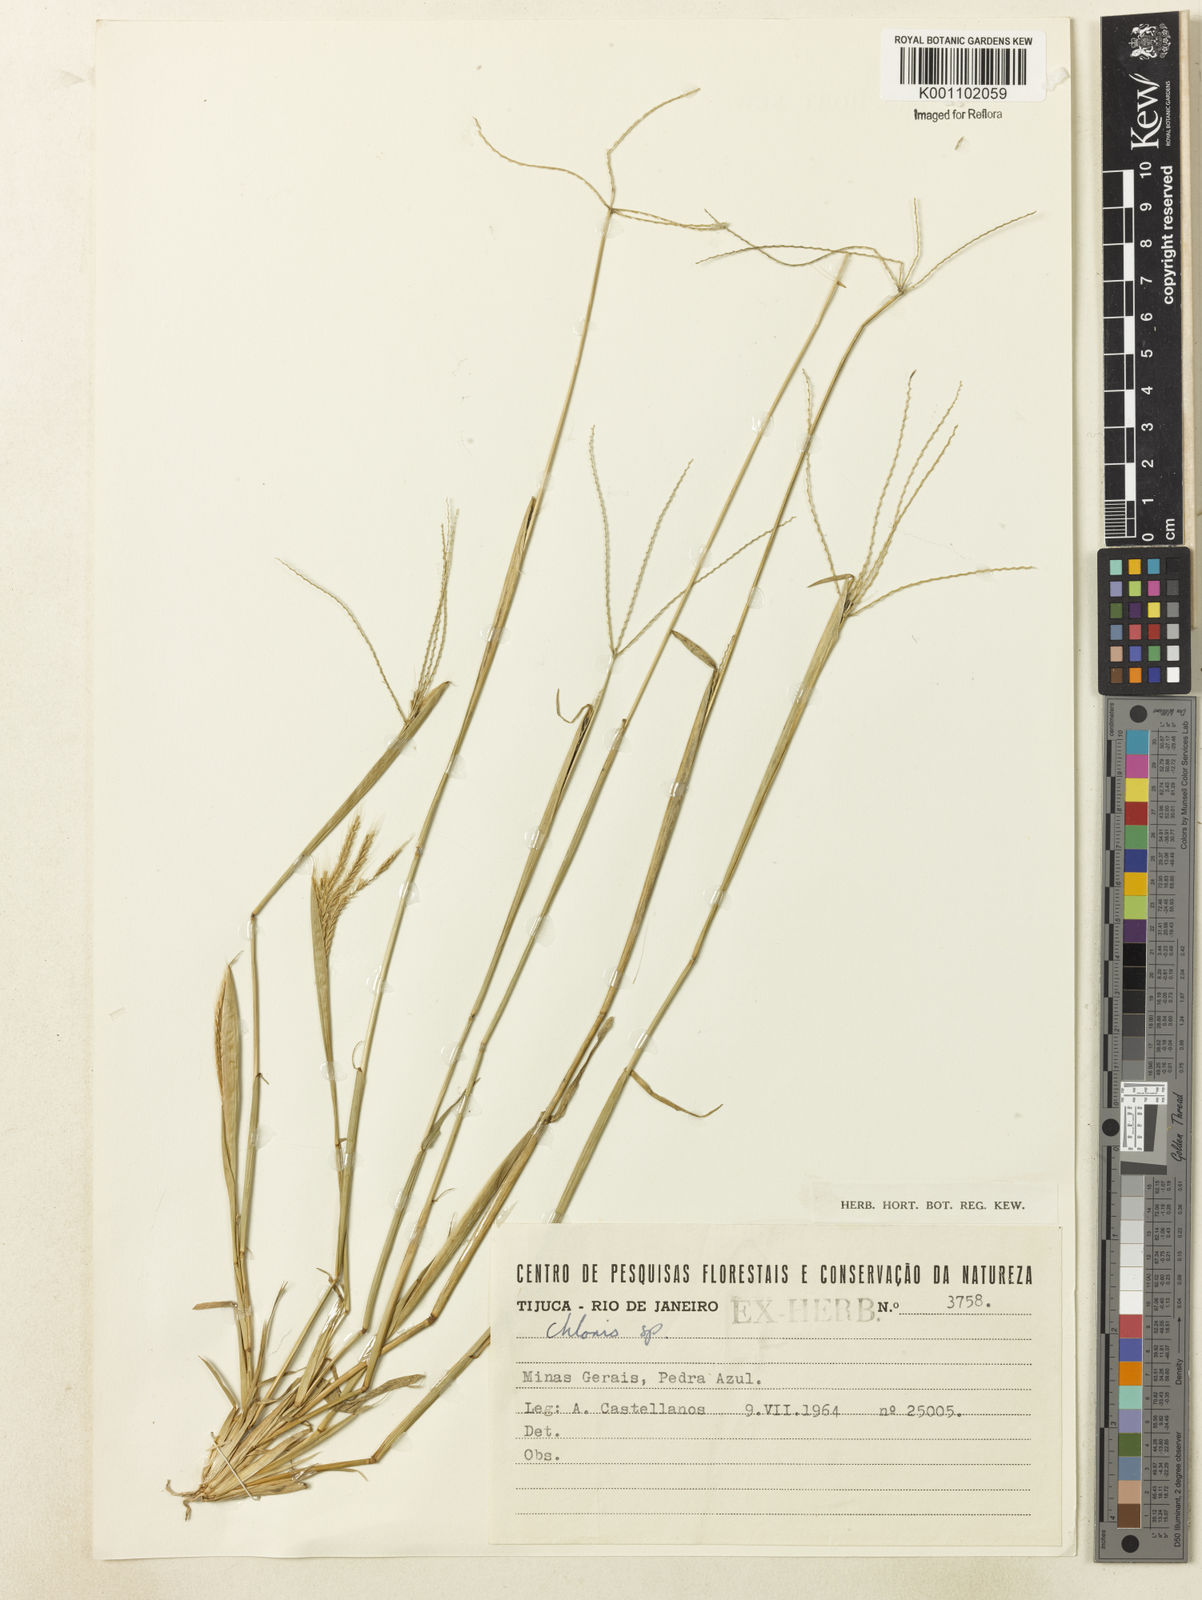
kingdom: Plantae
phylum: Tracheophyta
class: Liliopsida
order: Poales
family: Poaceae
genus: Chloris
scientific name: Chloris
